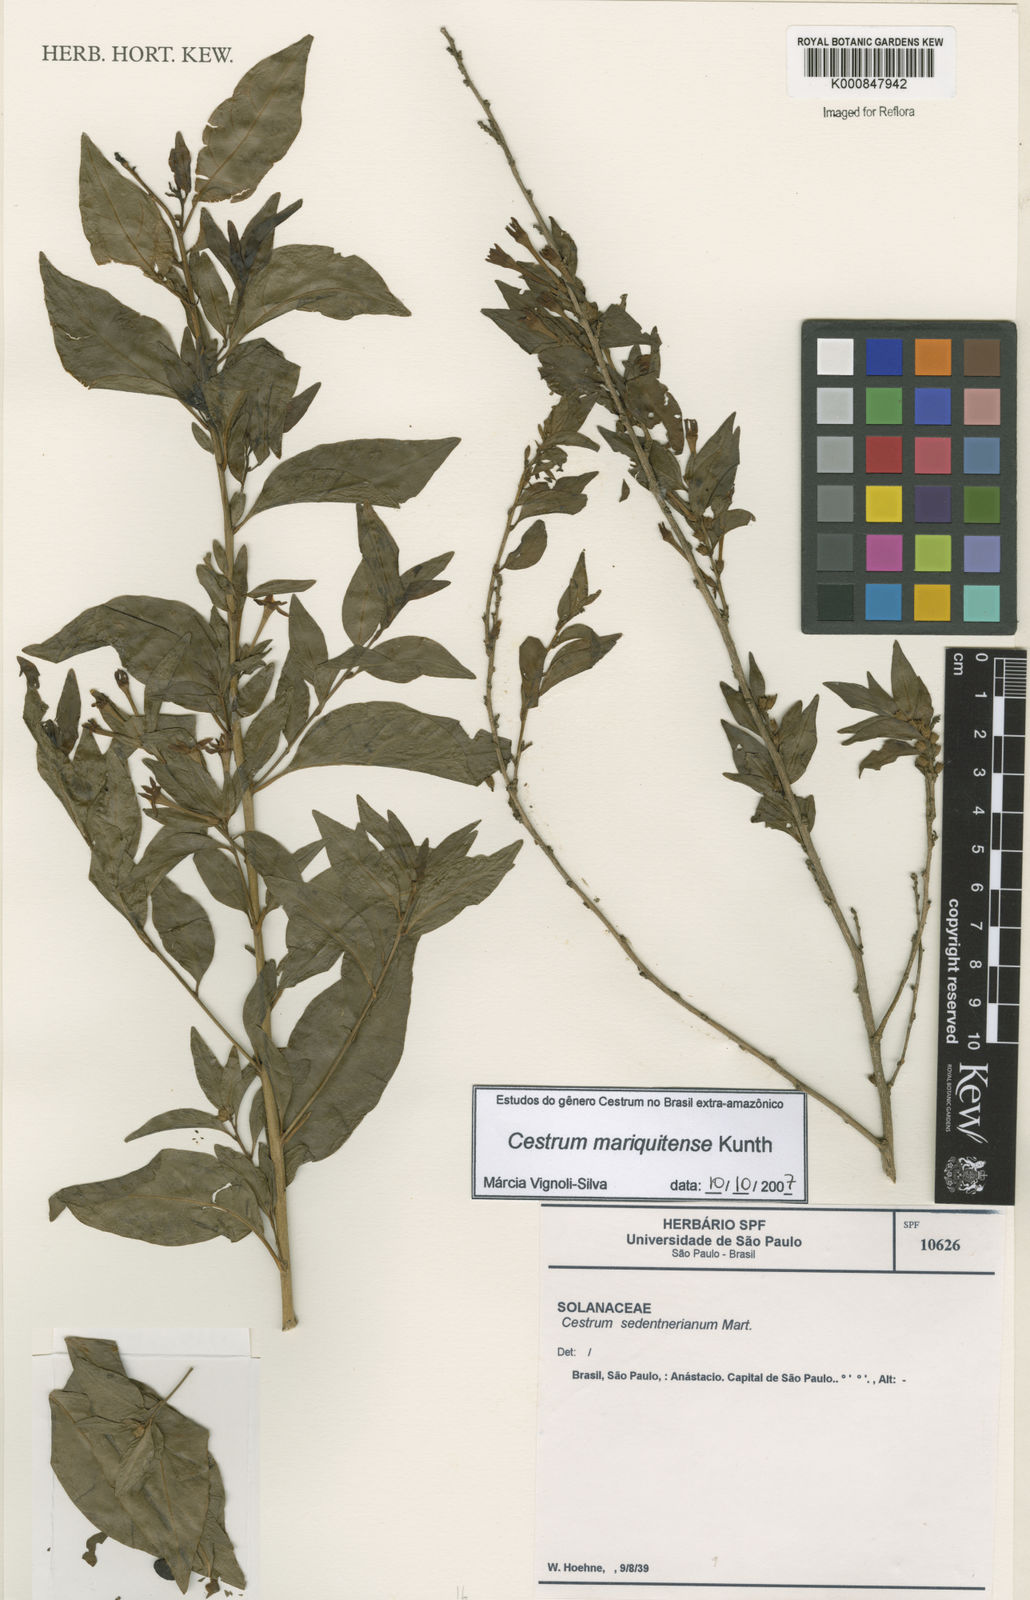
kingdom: Plantae
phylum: Tracheophyta
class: Magnoliopsida
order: Solanales
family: Solanaceae
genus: Cestrum
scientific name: Cestrum mariquitense
